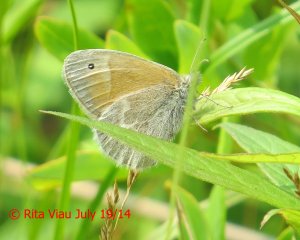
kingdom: Animalia
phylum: Arthropoda
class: Insecta
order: Lepidoptera
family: Nymphalidae
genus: Coenonympha
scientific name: Coenonympha tullia
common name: Large Heath
